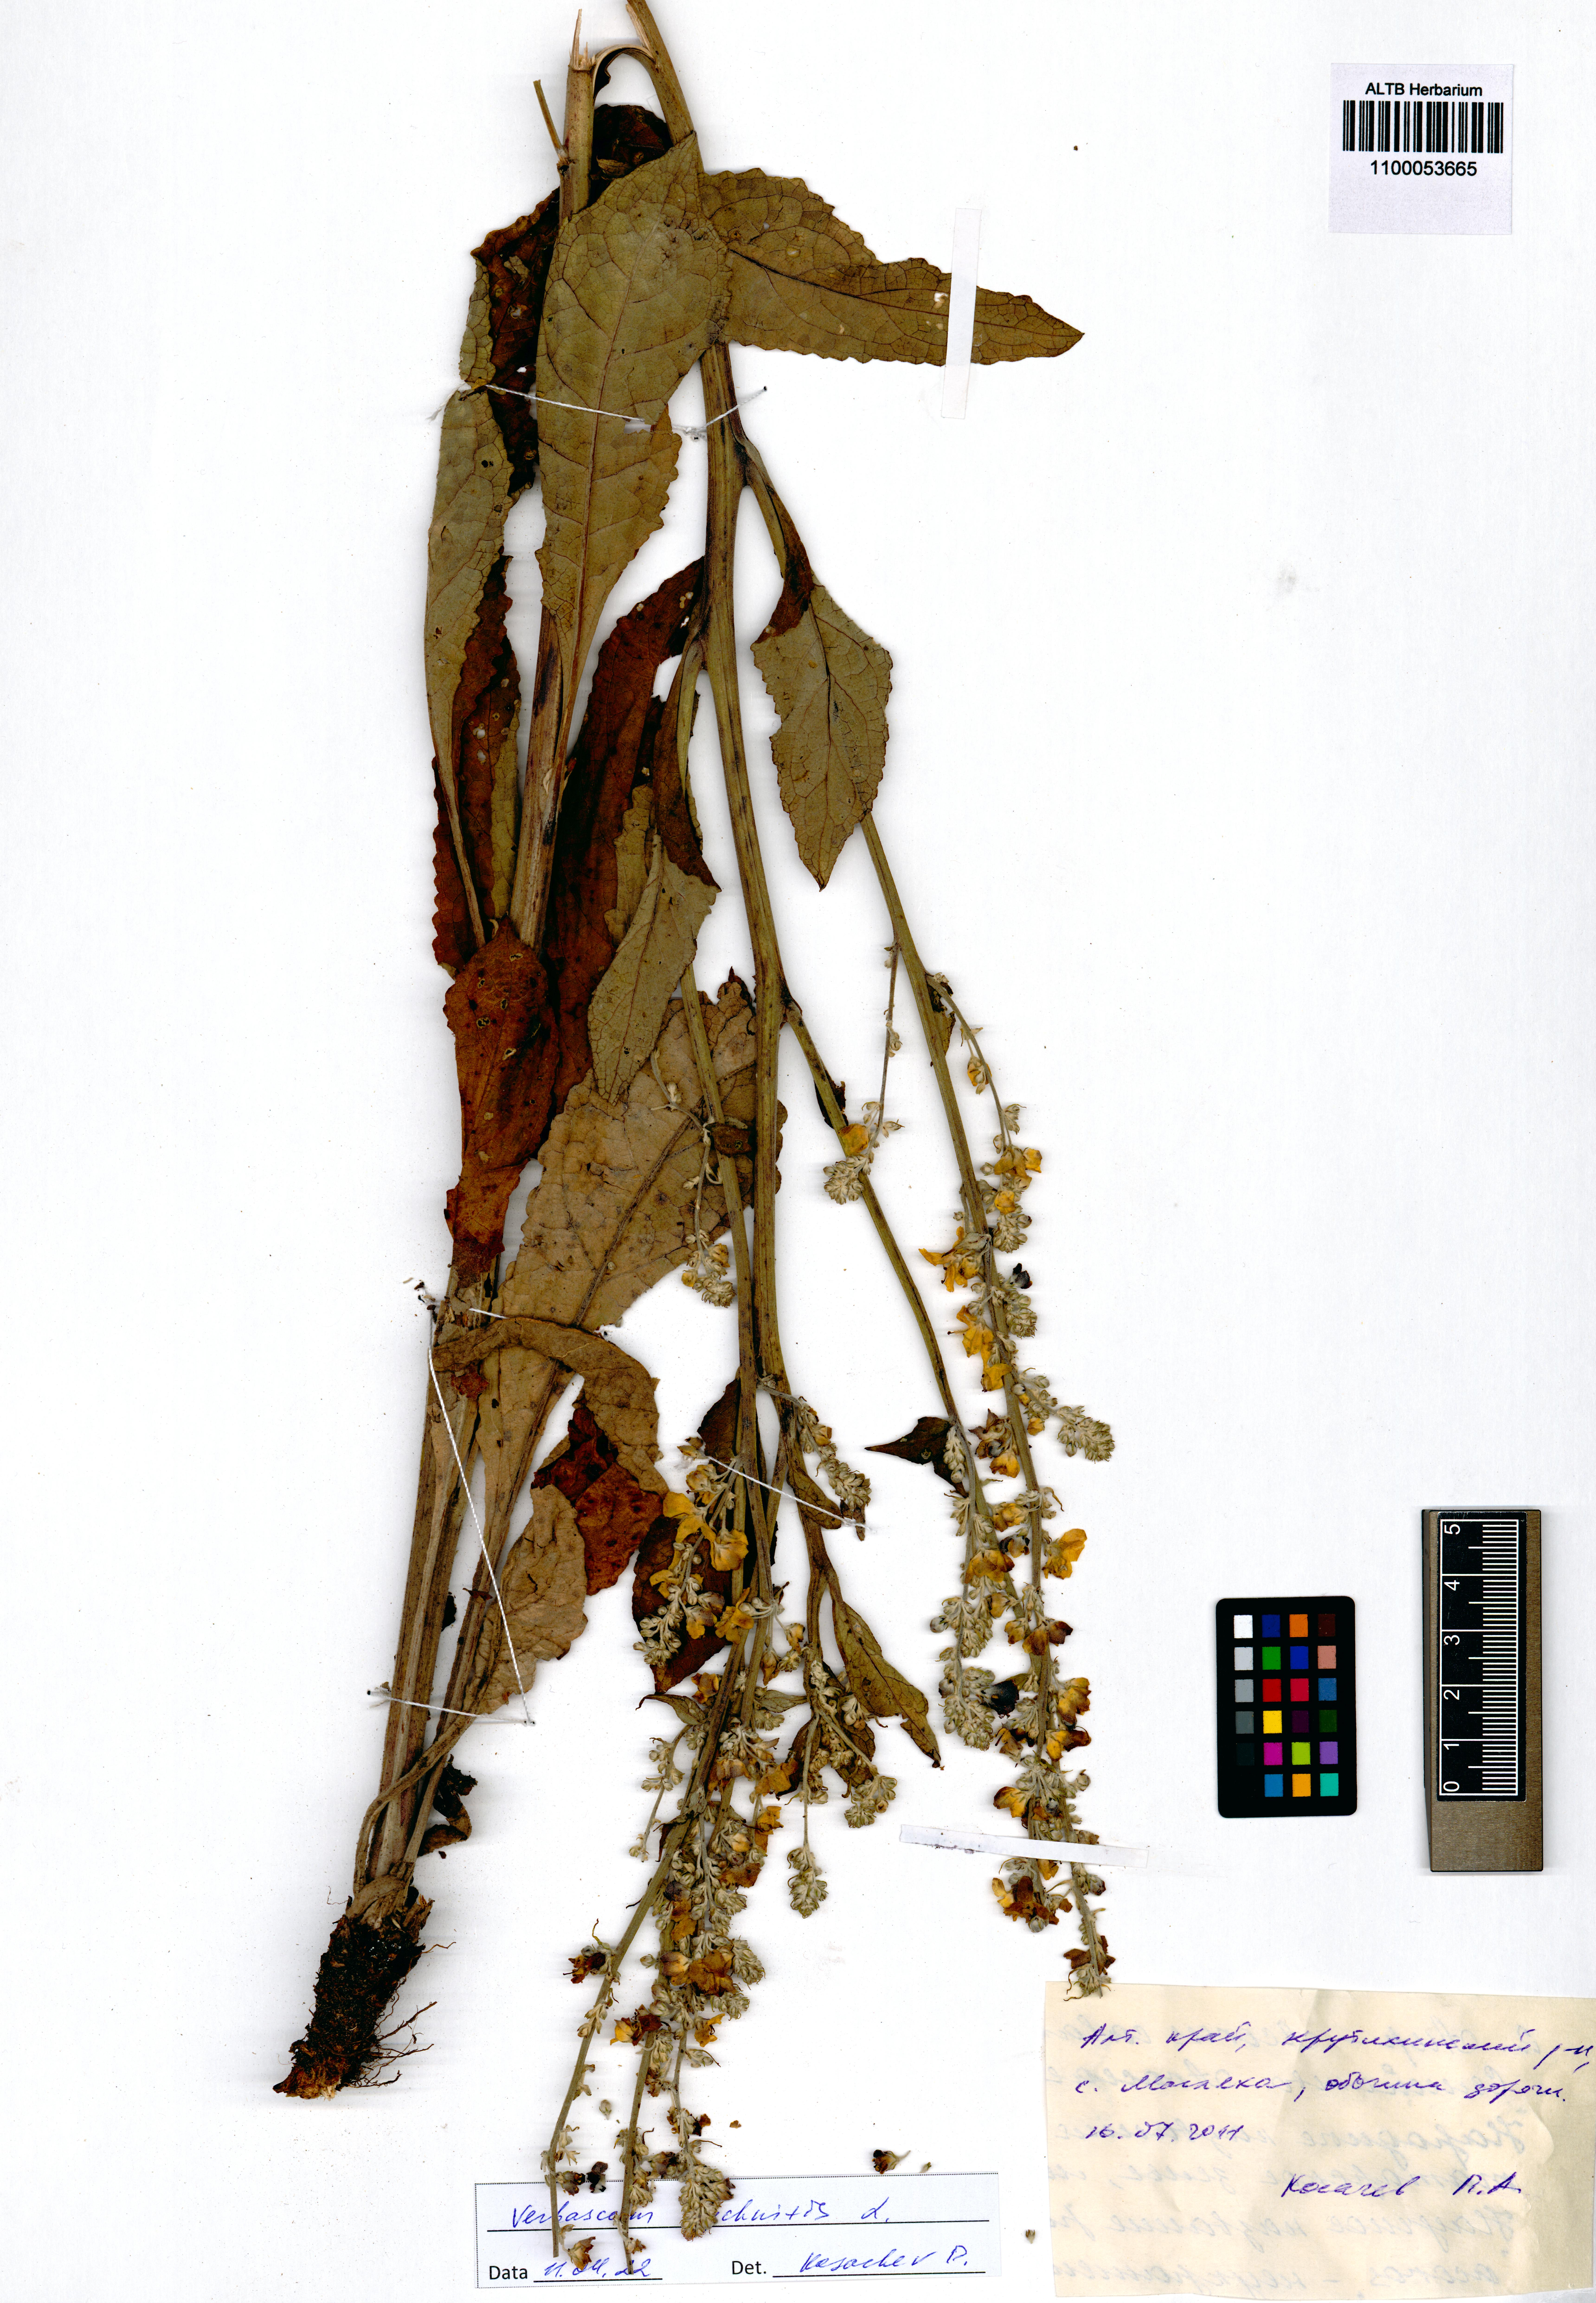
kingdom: Plantae
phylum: Tracheophyta
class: Magnoliopsida
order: Lamiales
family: Scrophulariaceae
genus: Verbascum
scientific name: Verbascum lychnitis
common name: White mullein
